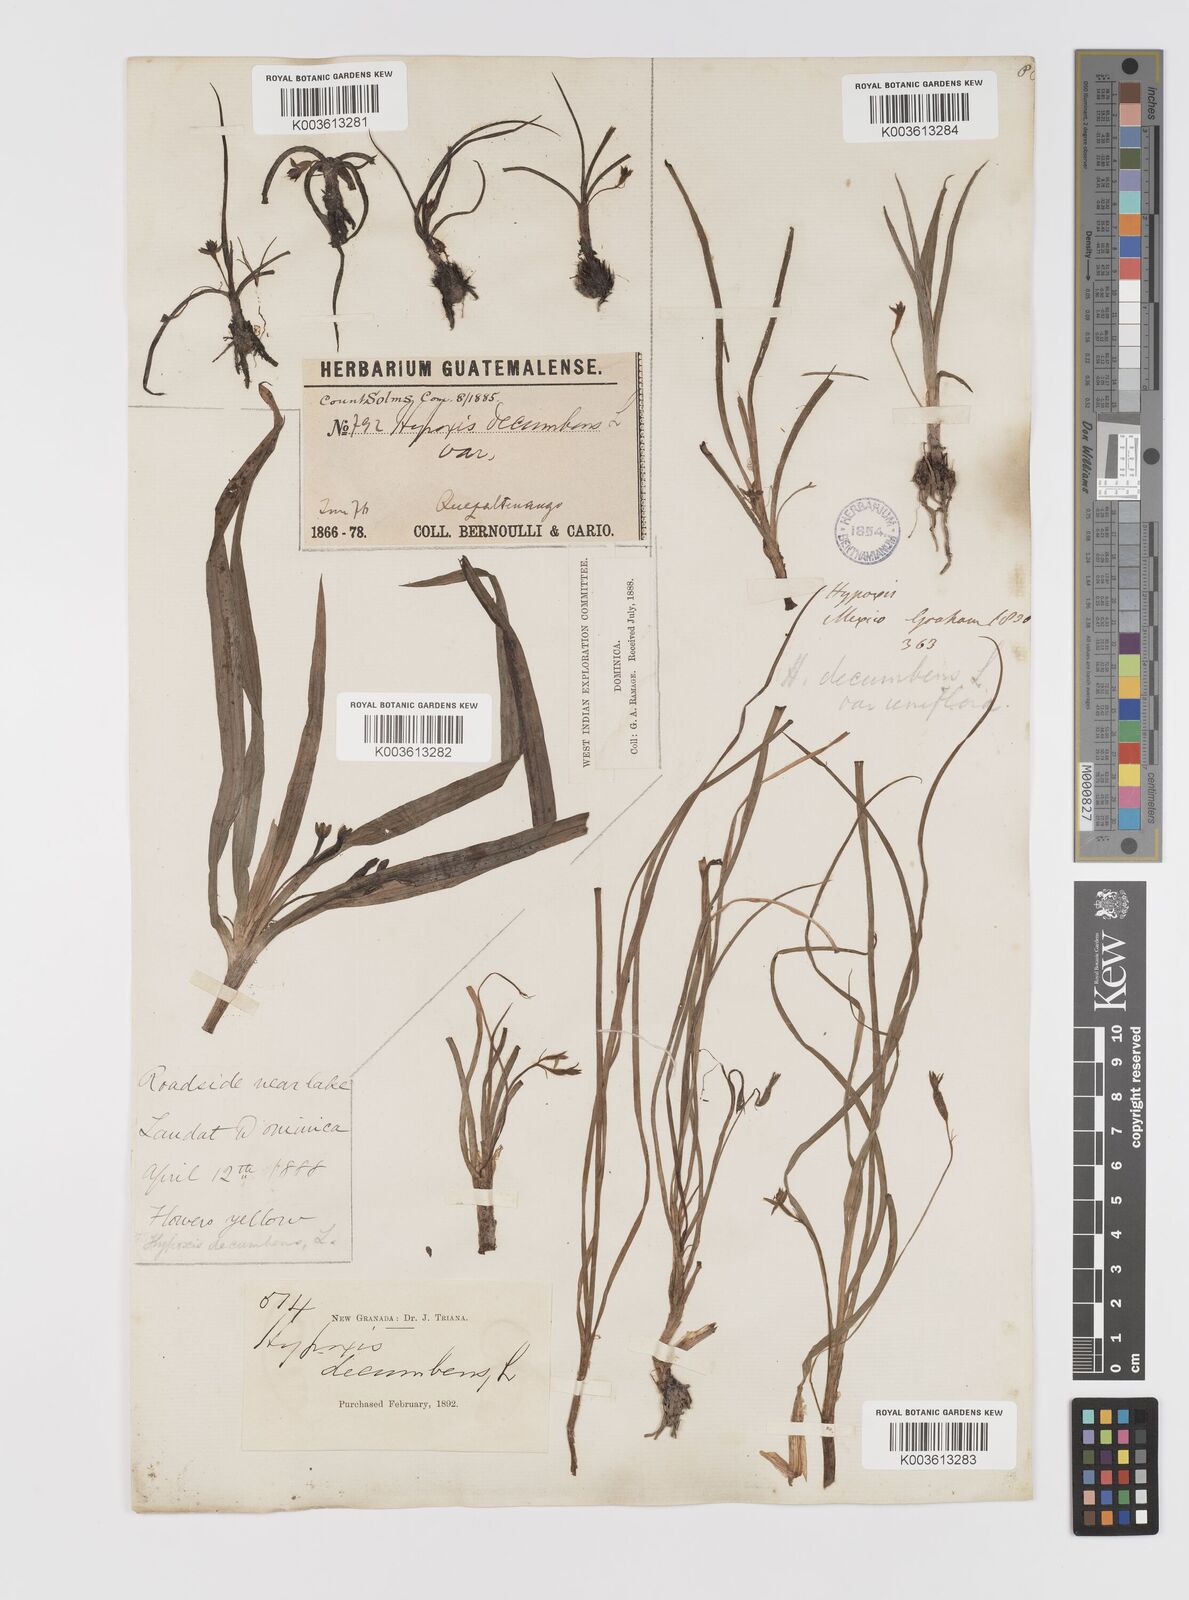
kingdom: Plantae
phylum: Tracheophyta
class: Liliopsida
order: Asparagales
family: Hypoxidaceae
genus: Hypoxis
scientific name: Hypoxis decumbens
